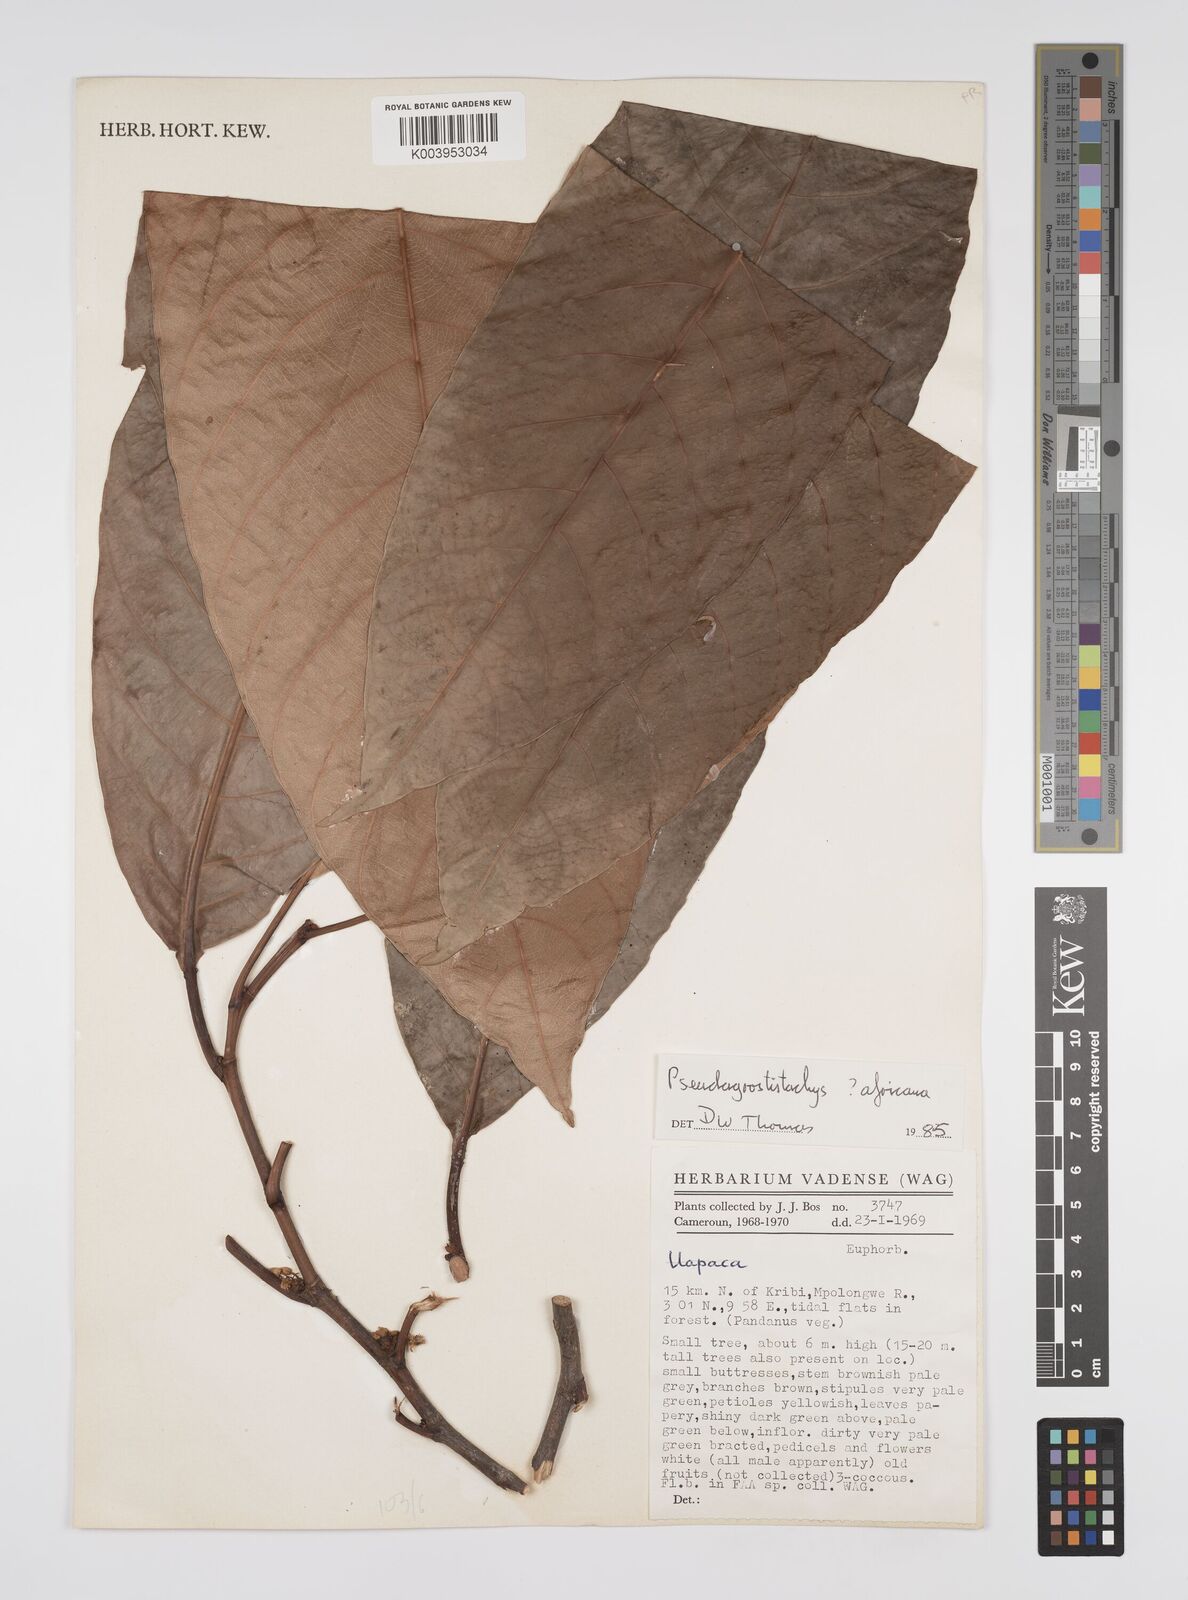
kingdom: Plantae
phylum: Tracheophyta
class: Magnoliopsida
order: Malpighiales
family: Euphorbiaceae
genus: Pseudagrostistachys
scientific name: Pseudagrostistachys africana
